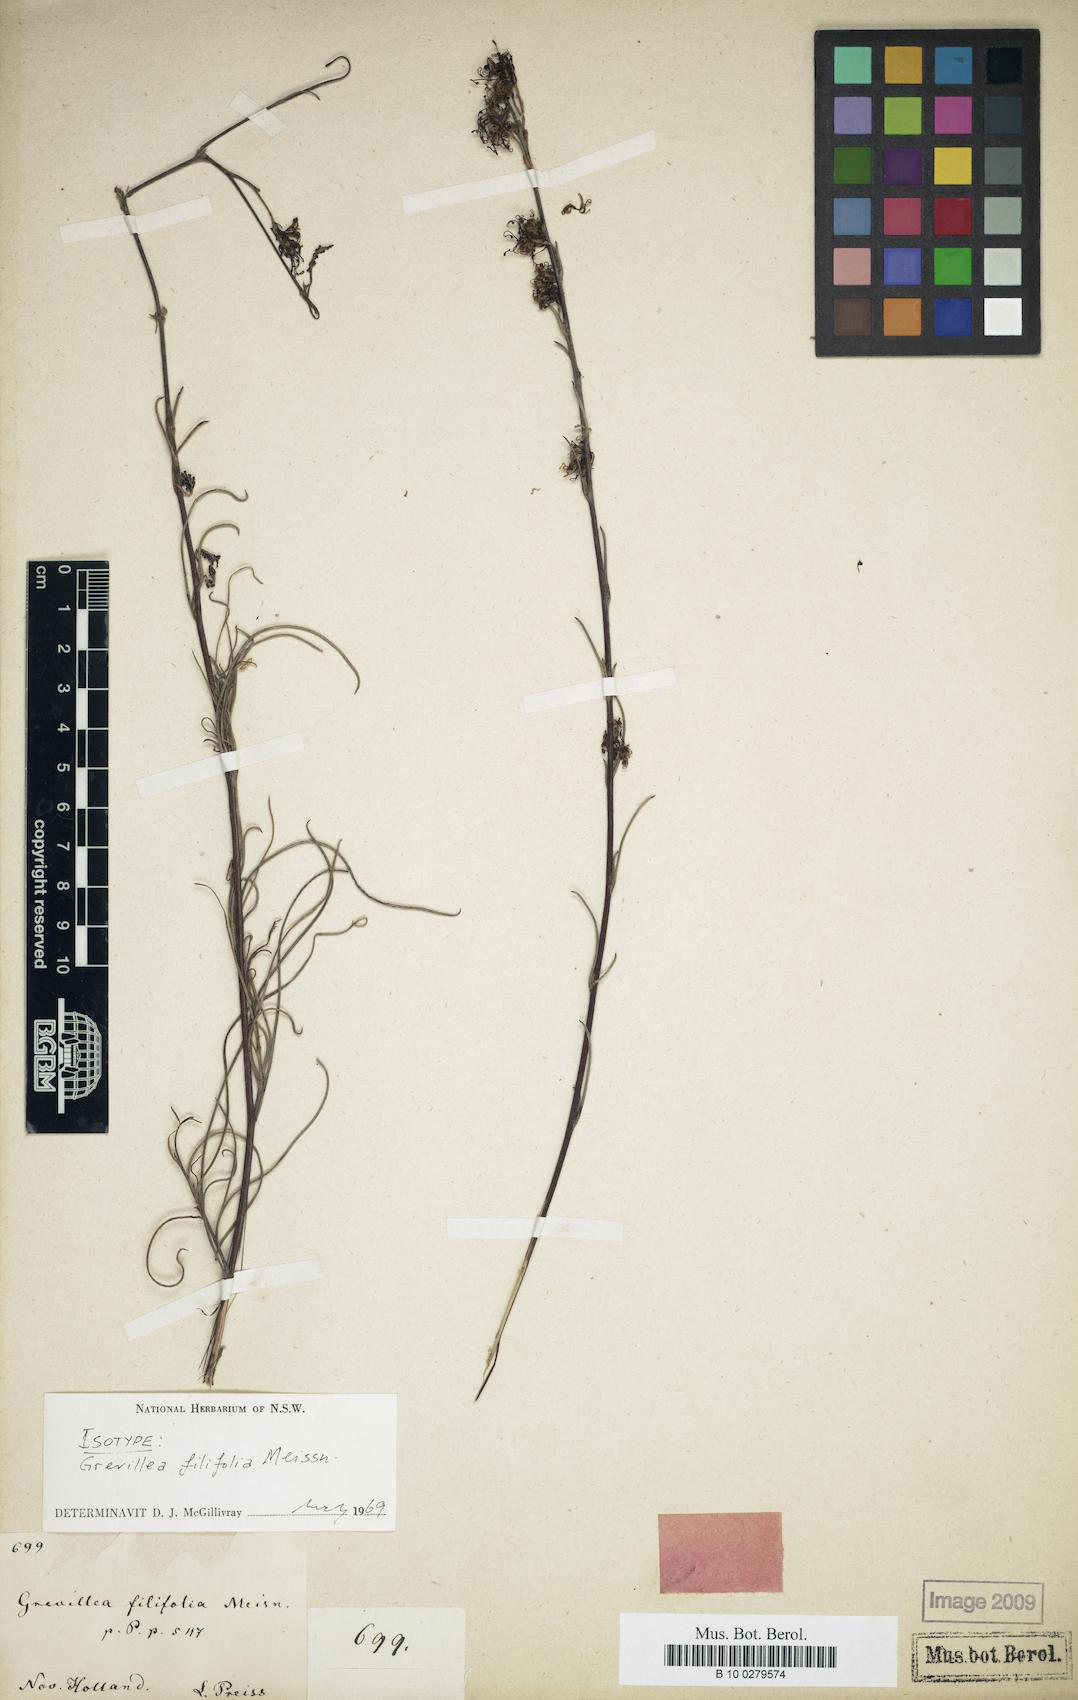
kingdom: Plantae
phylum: Tracheophyta
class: Magnoliopsida
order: Proteales
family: Proteaceae
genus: Grevillea
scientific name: Grevillea endlicheriana
